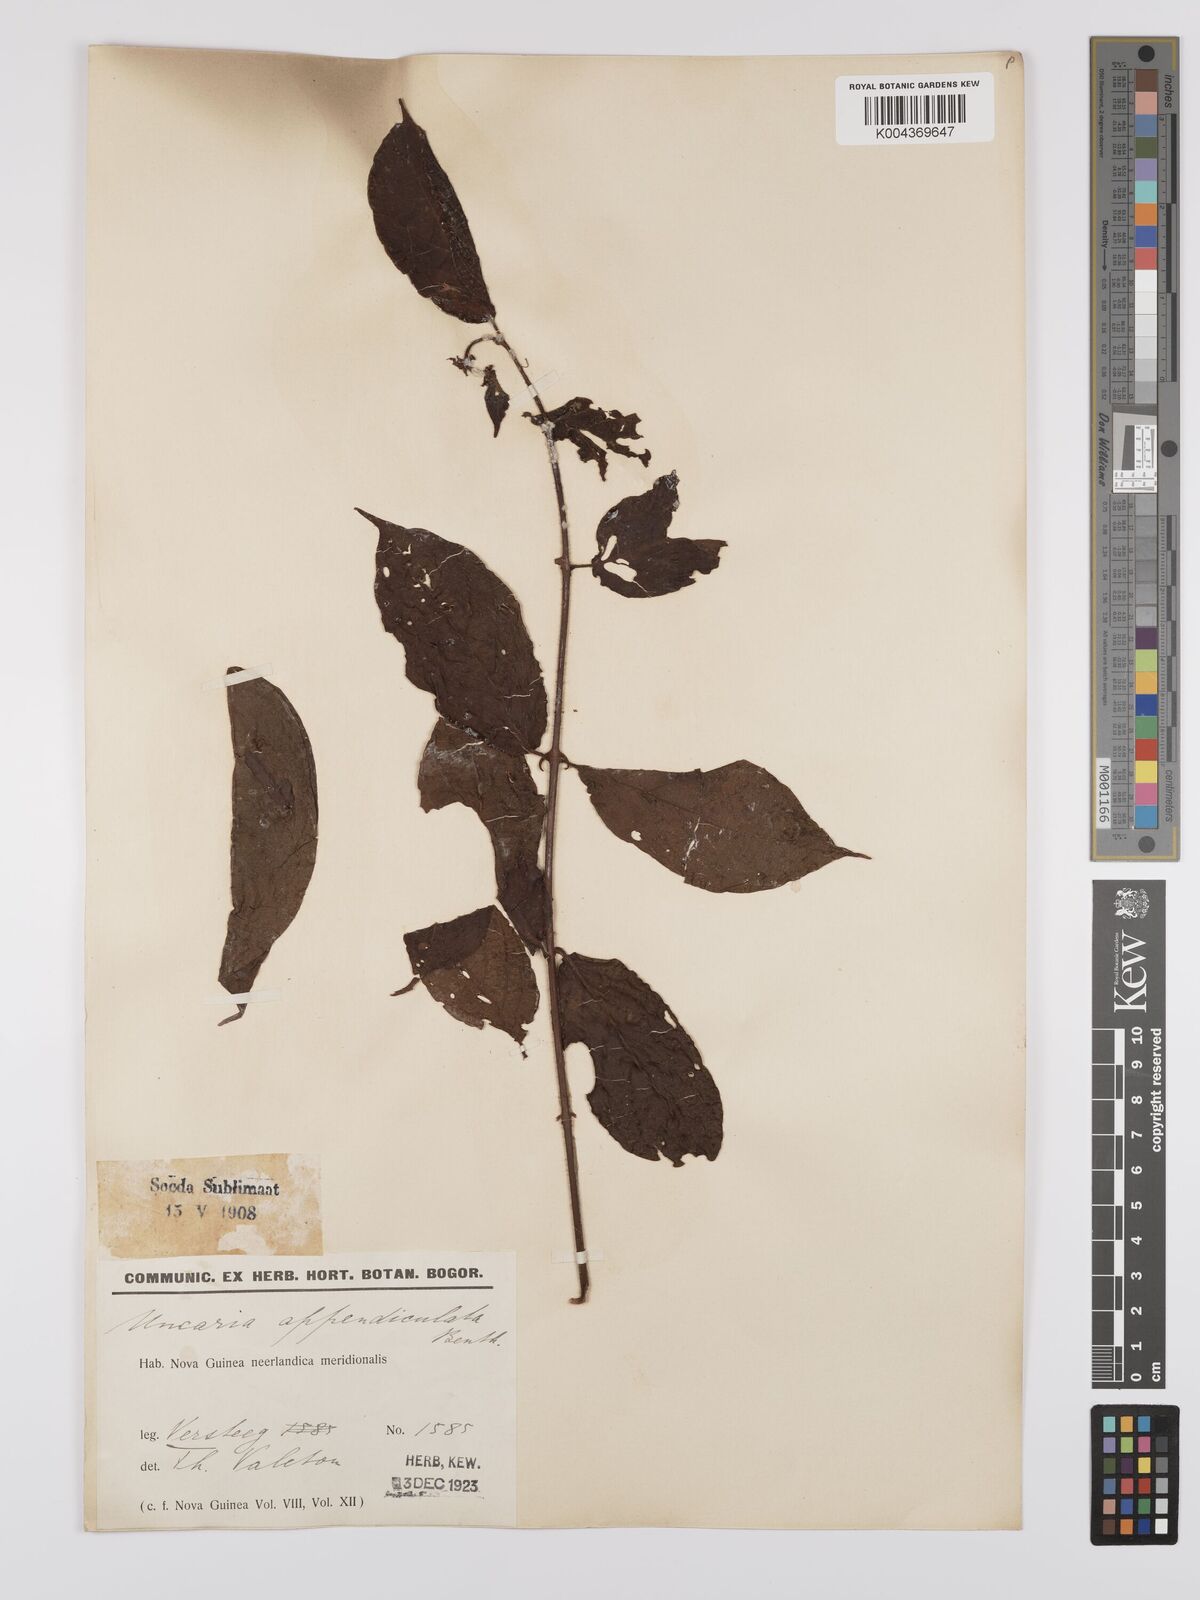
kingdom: Plantae
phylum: Tracheophyta
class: Magnoliopsida
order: Gentianales
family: Rubiaceae
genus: Uncaria
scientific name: Uncaria lanosa
